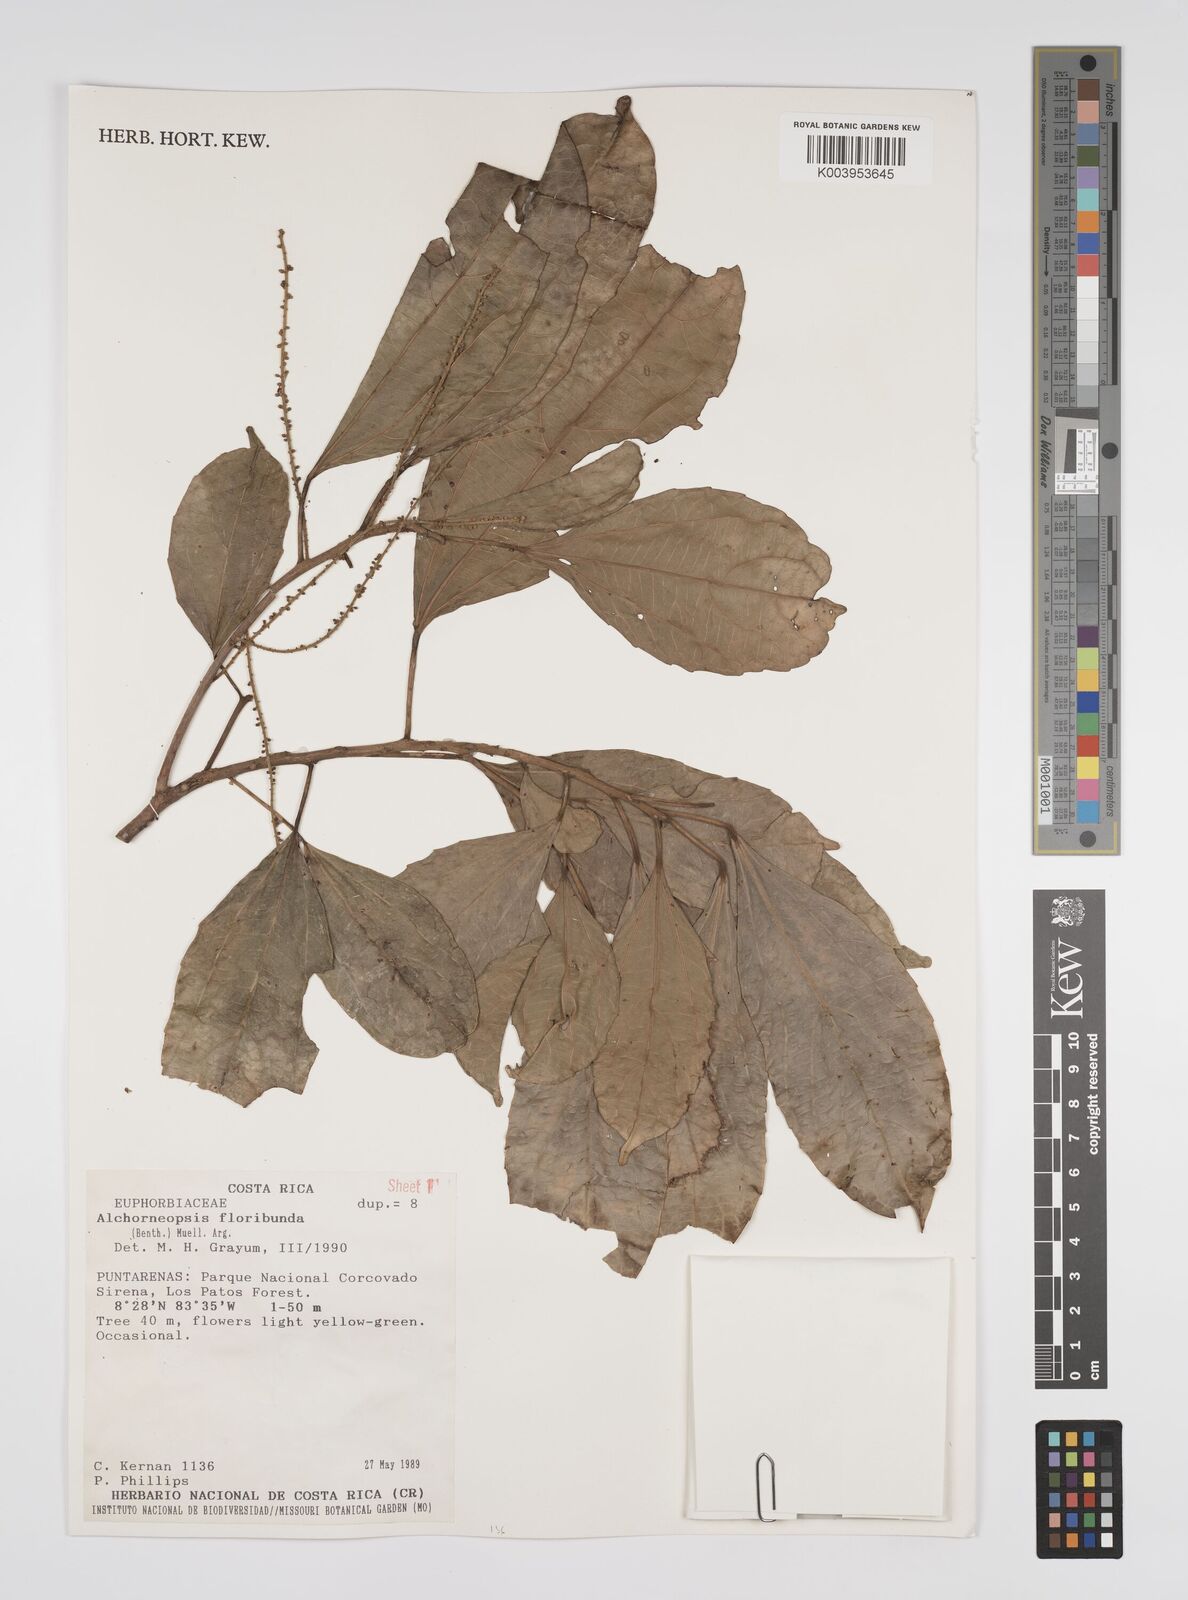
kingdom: Plantae
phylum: Tracheophyta
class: Magnoliopsida
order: Malpighiales
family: Euphorbiaceae
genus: Alchorneopsis
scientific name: Alchorneopsis floribunda
